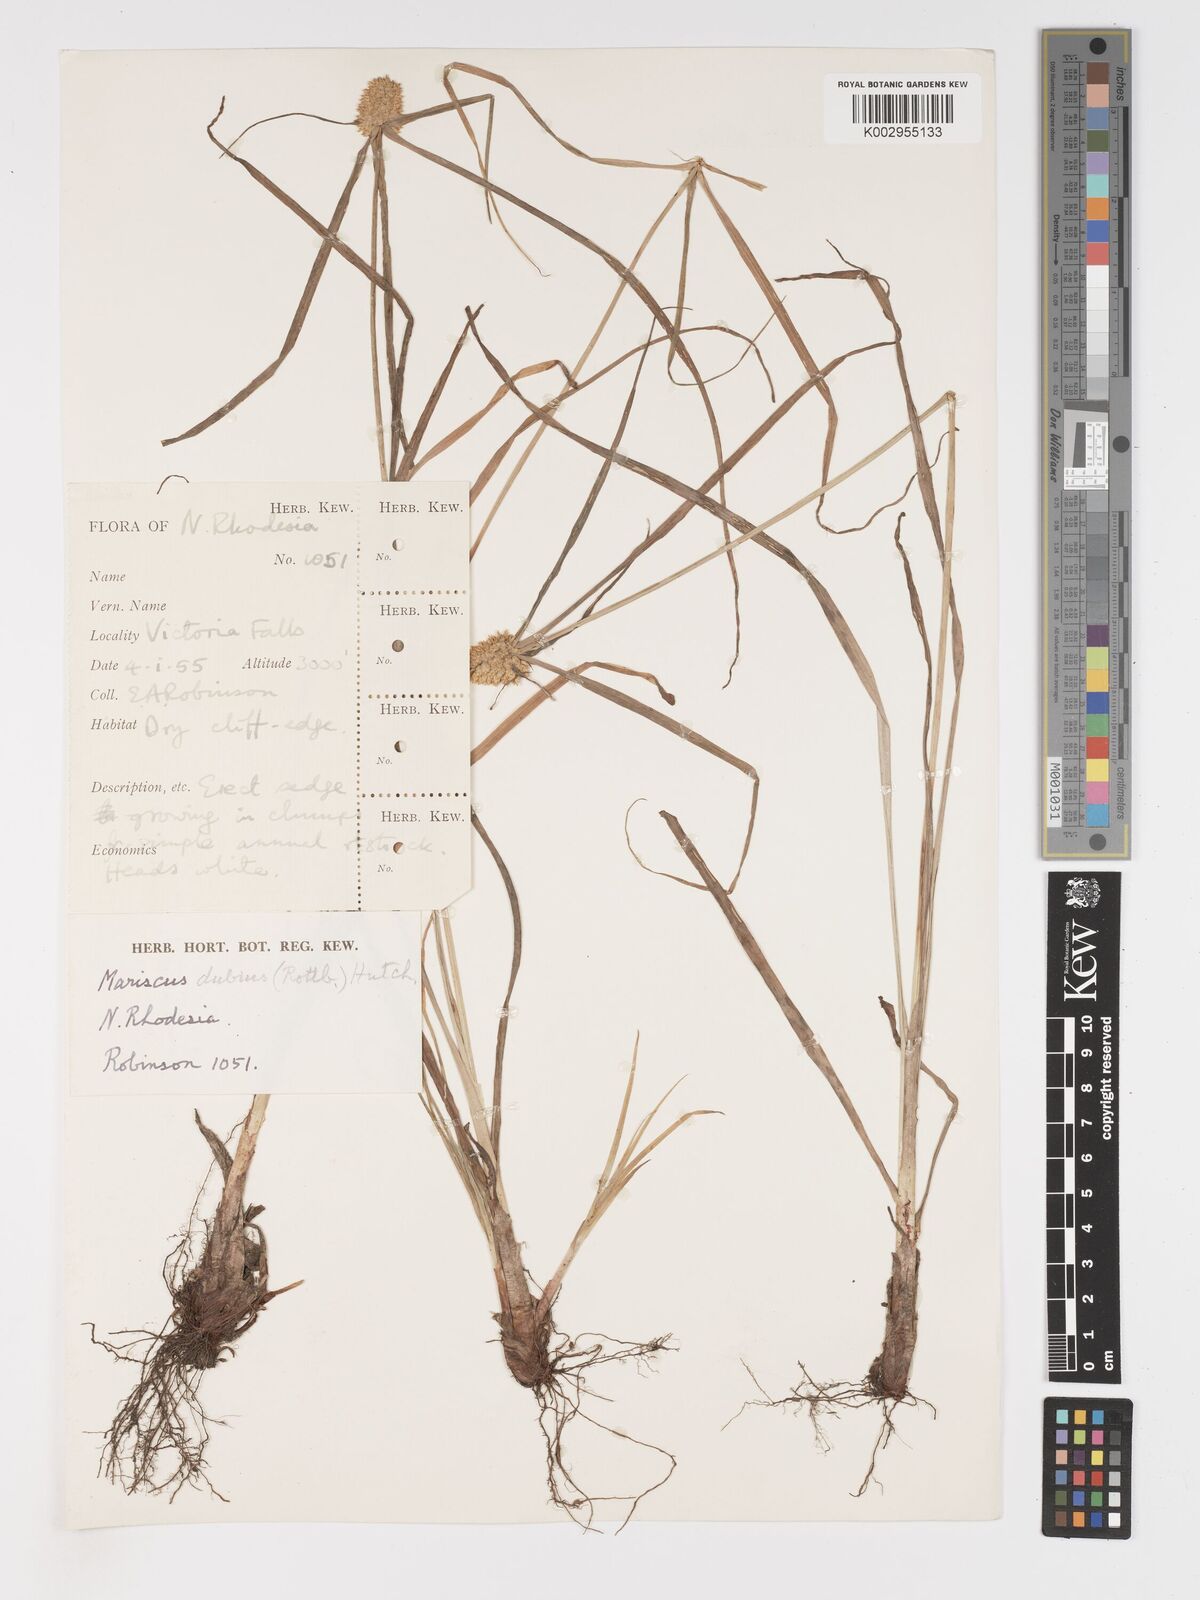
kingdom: Plantae
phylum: Tracheophyta
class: Liliopsida
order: Poales
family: Cyperaceae
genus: Cyperus
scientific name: Cyperus dubius
